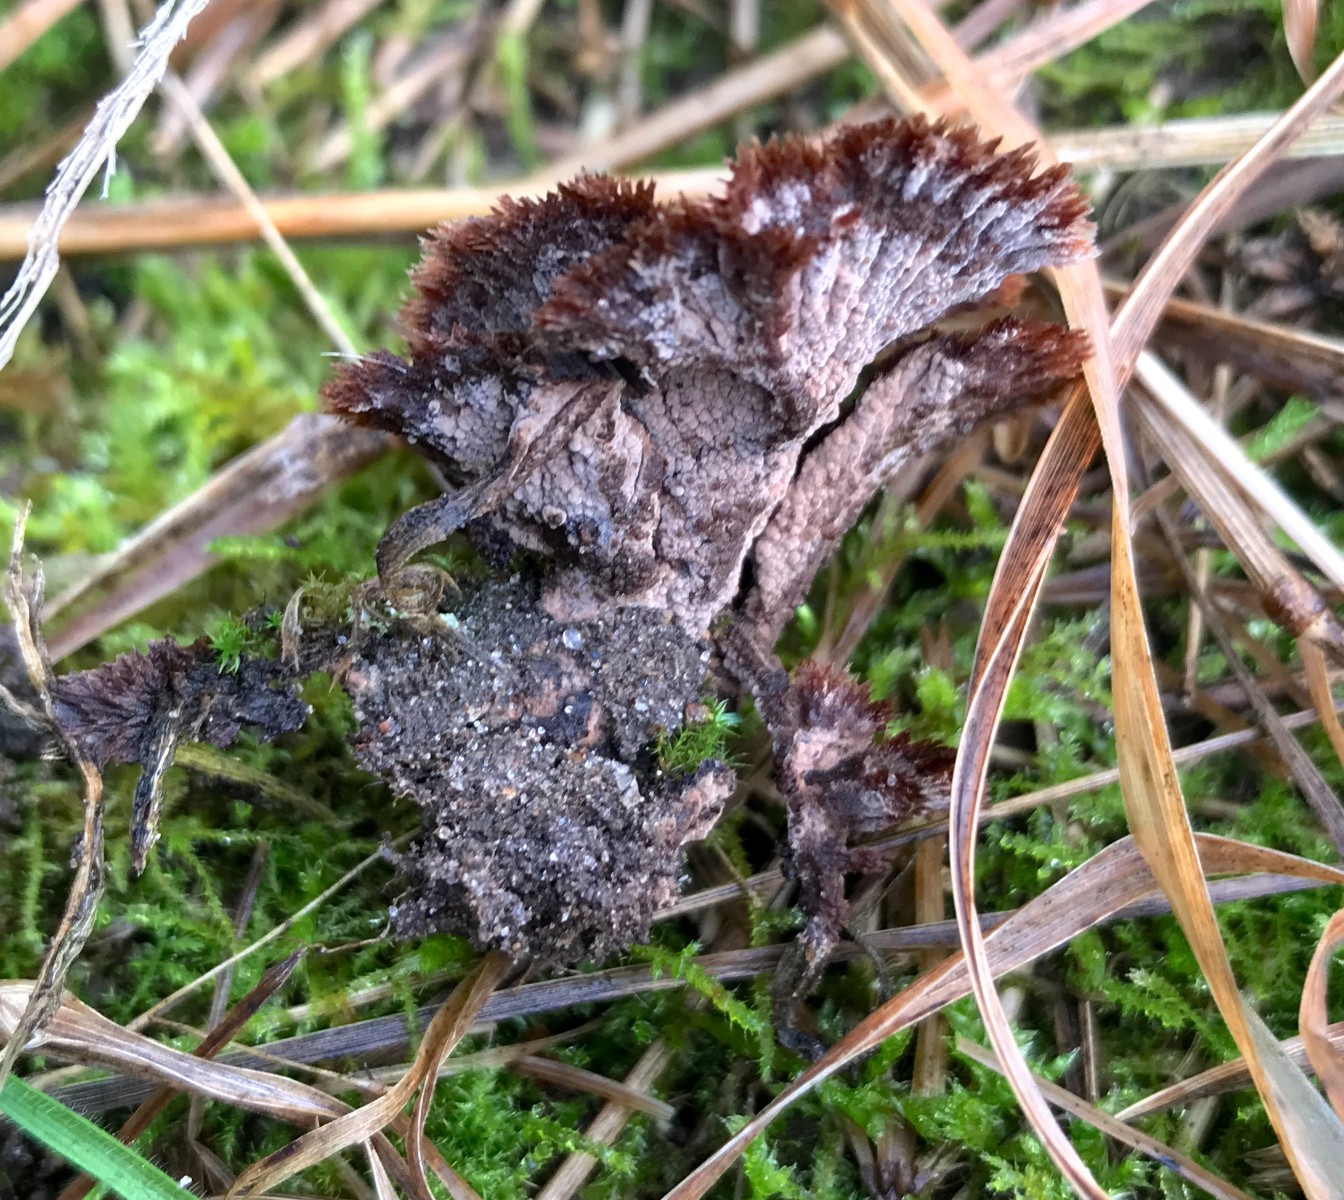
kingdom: Fungi
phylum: Basidiomycota
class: Agaricomycetes
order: Thelephorales
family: Thelephoraceae
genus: Thelephora
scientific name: Thelephora terrestris
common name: fliget frynsesvamp
